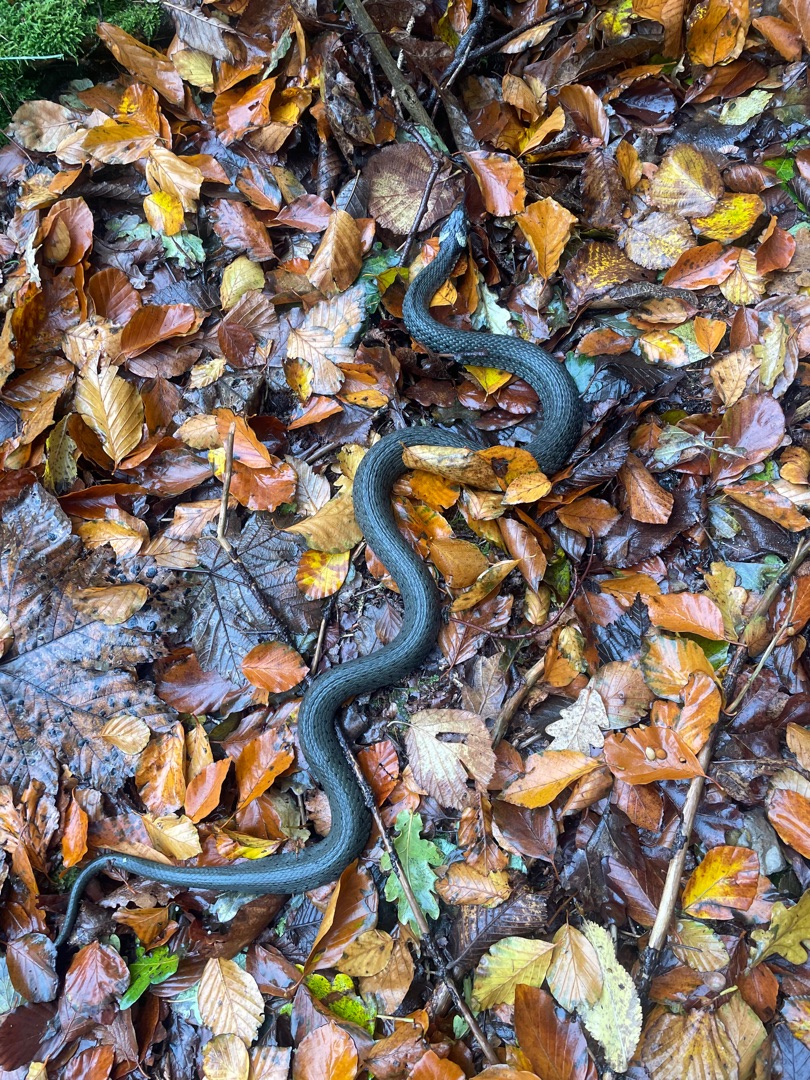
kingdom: Animalia
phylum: Chordata
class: Squamata
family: Colubridae
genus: Natrix
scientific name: Natrix natrix
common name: Snog
